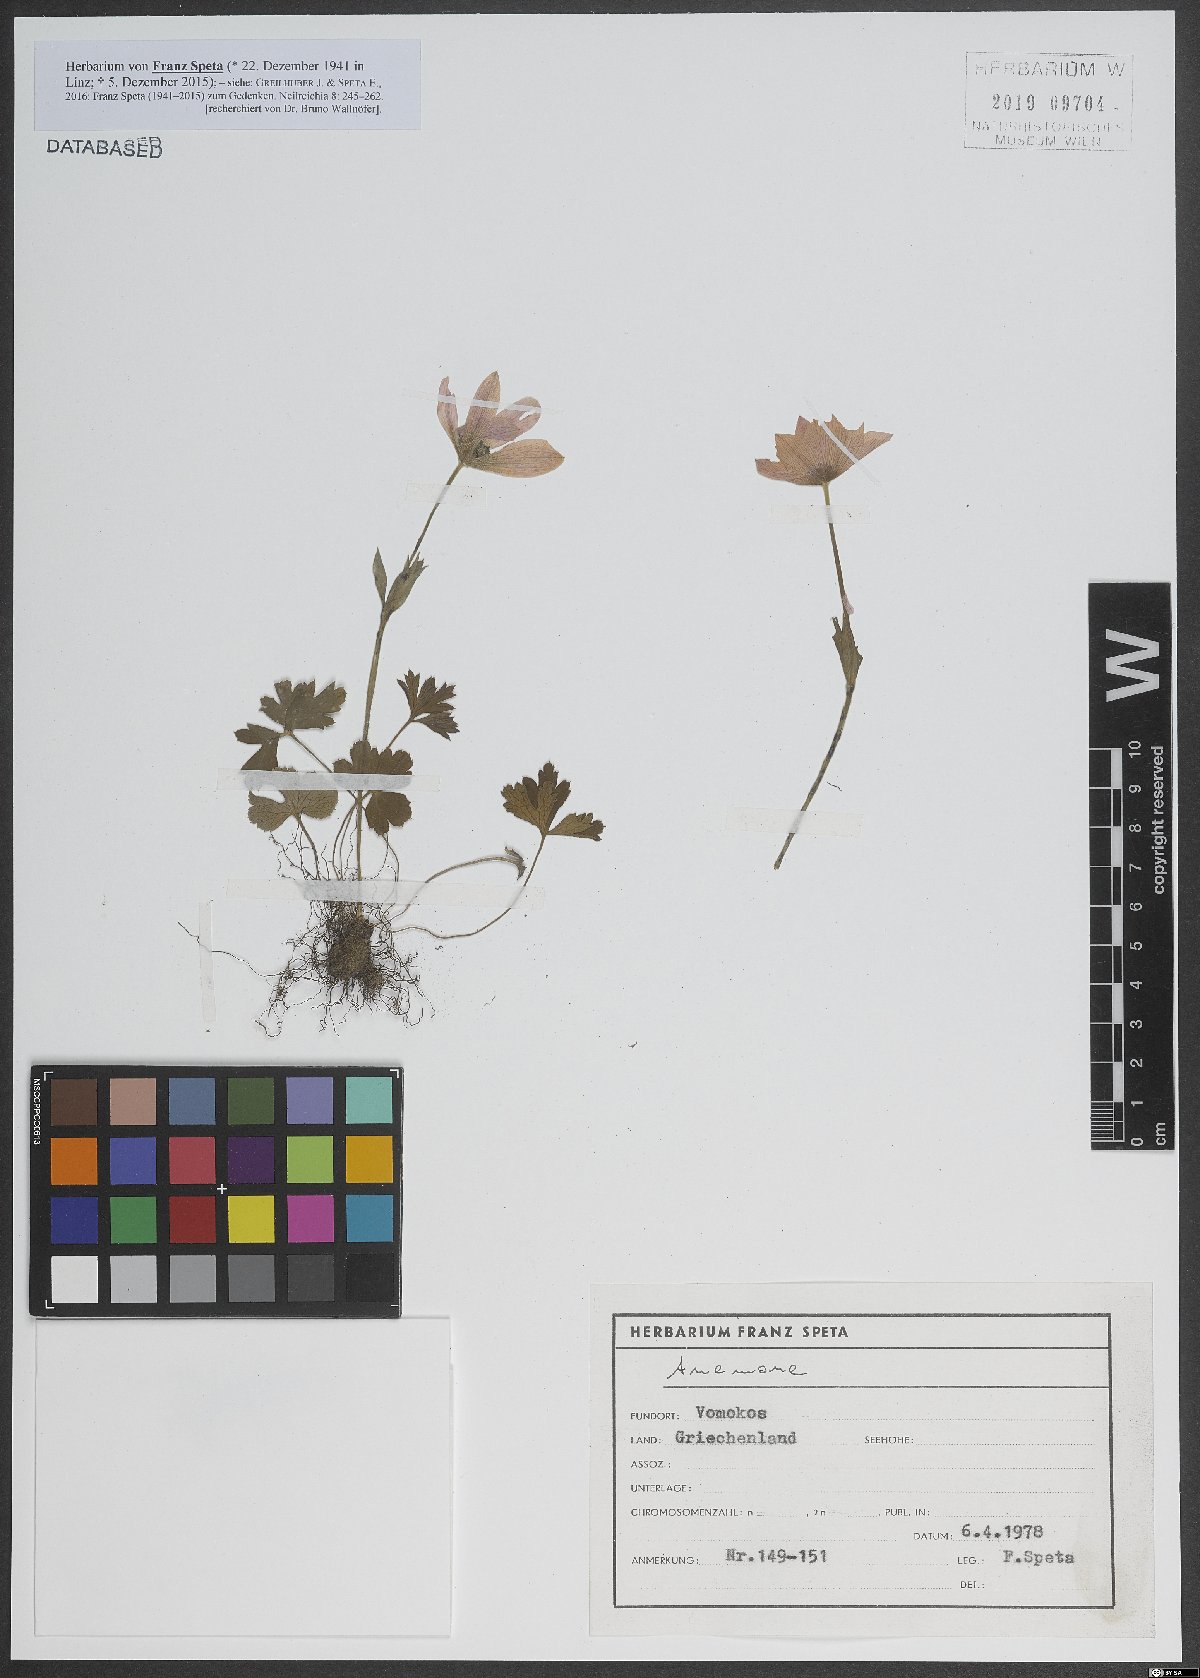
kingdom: Plantae
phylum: Tracheophyta
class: Magnoliopsida
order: Ranunculales
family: Ranunculaceae
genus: Anemone
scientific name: Anemone
